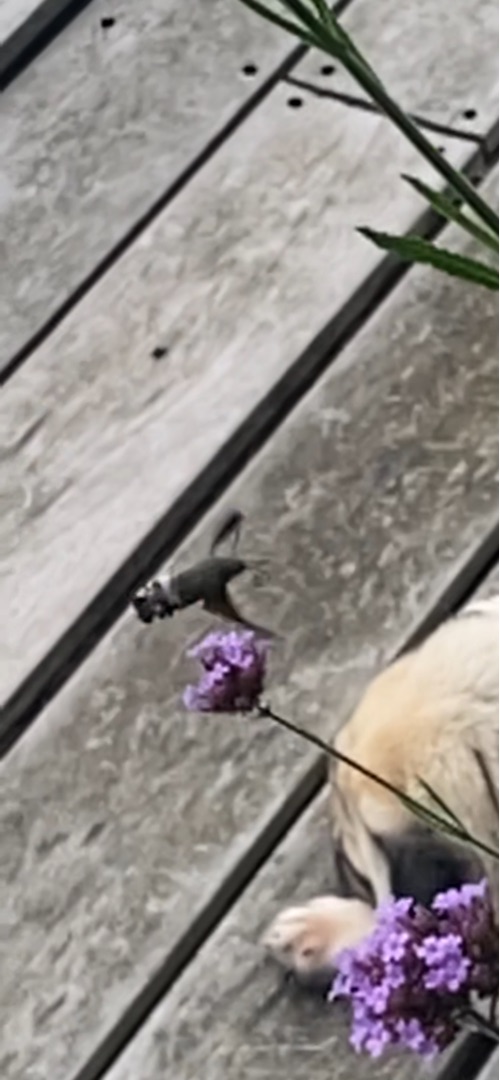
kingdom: Animalia
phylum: Arthropoda
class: Insecta
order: Lepidoptera
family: Sphingidae
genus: Macroglossum
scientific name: Macroglossum stellatarum
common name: Duehale
